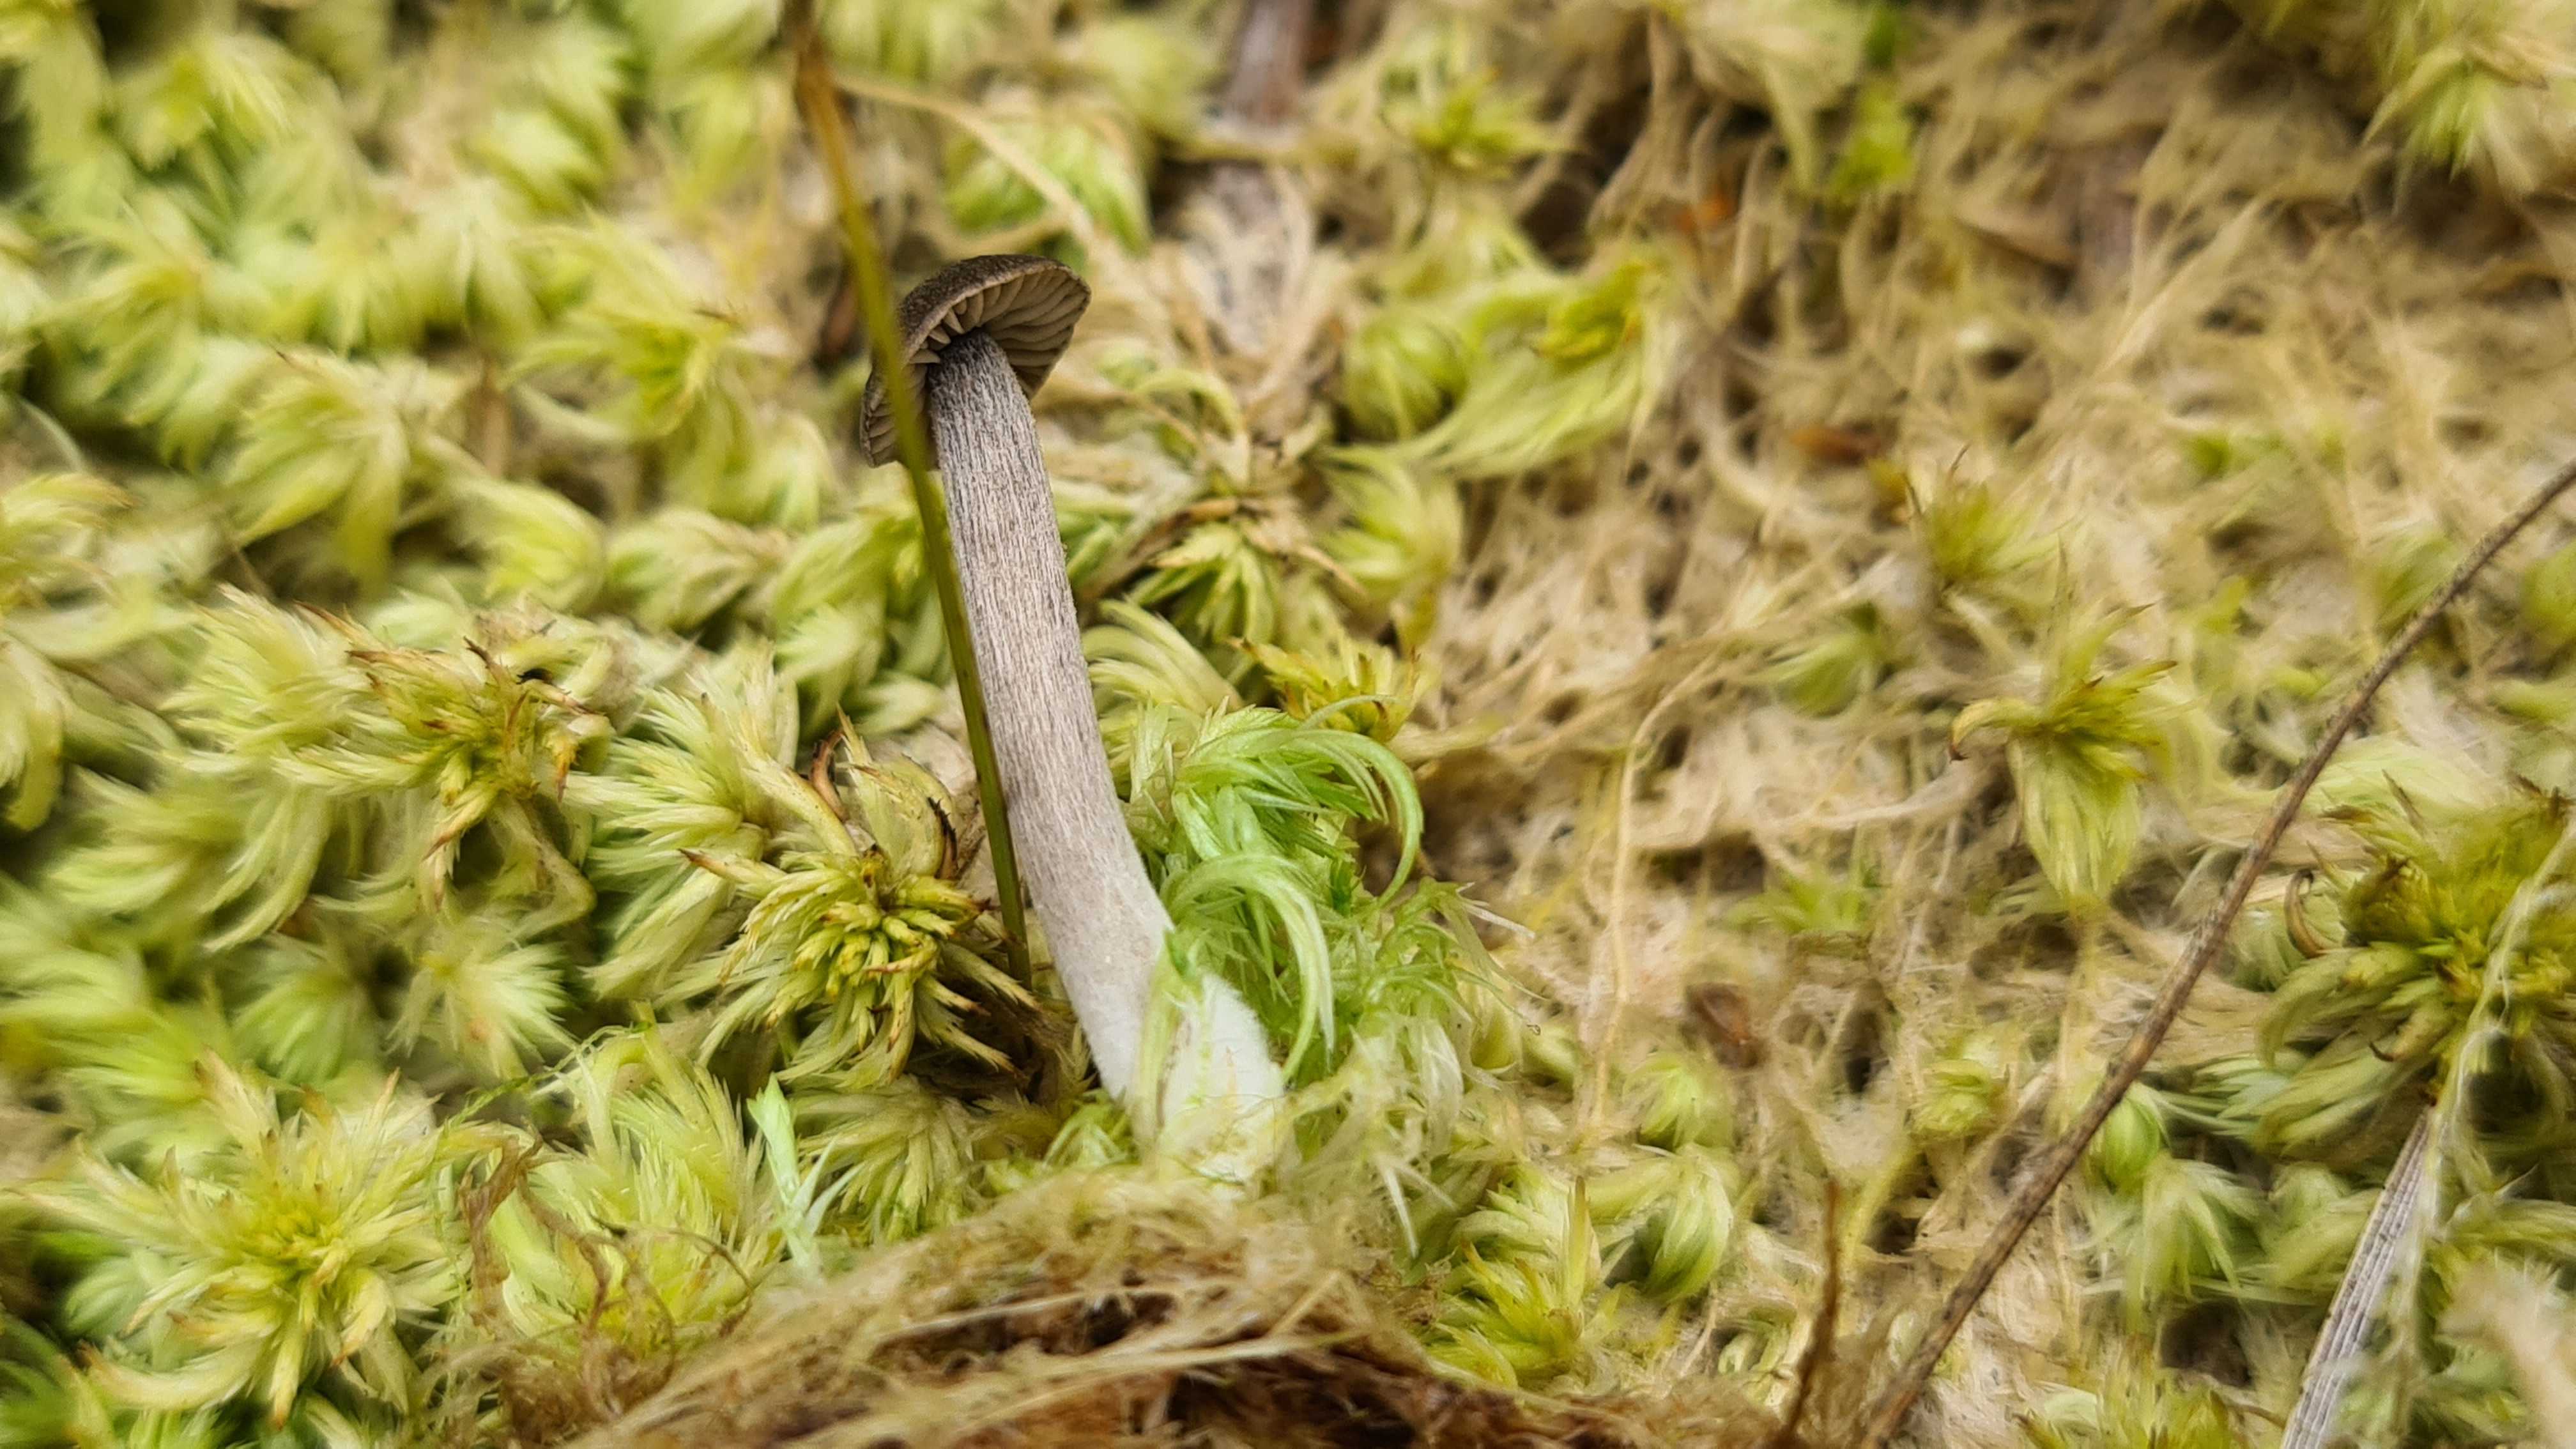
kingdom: Fungi
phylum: Basidiomycota
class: Agaricomycetes
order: Agaricales
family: Entolomataceae
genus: Entoloma
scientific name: Entoloma
